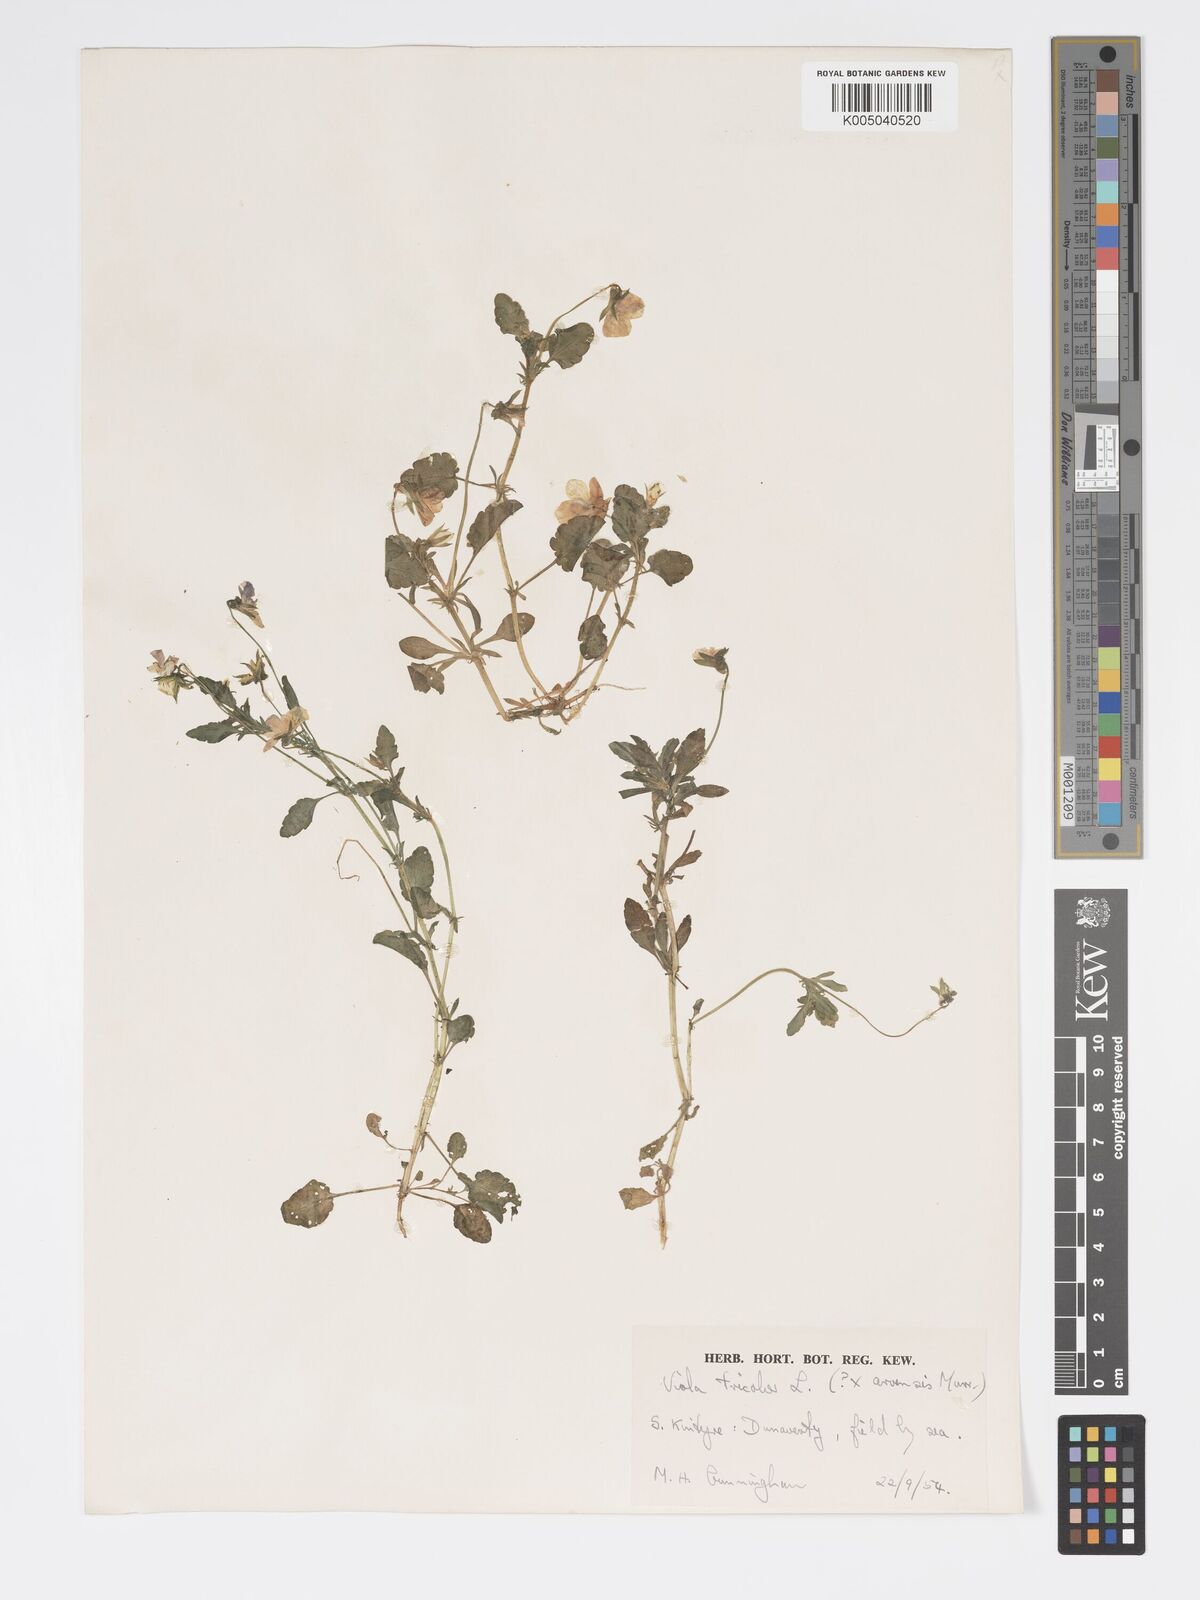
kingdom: Plantae
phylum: Tracheophyta
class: Magnoliopsida
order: Malpighiales
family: Violaceae
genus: Viola
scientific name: Viola arvensis
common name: Field pansy
